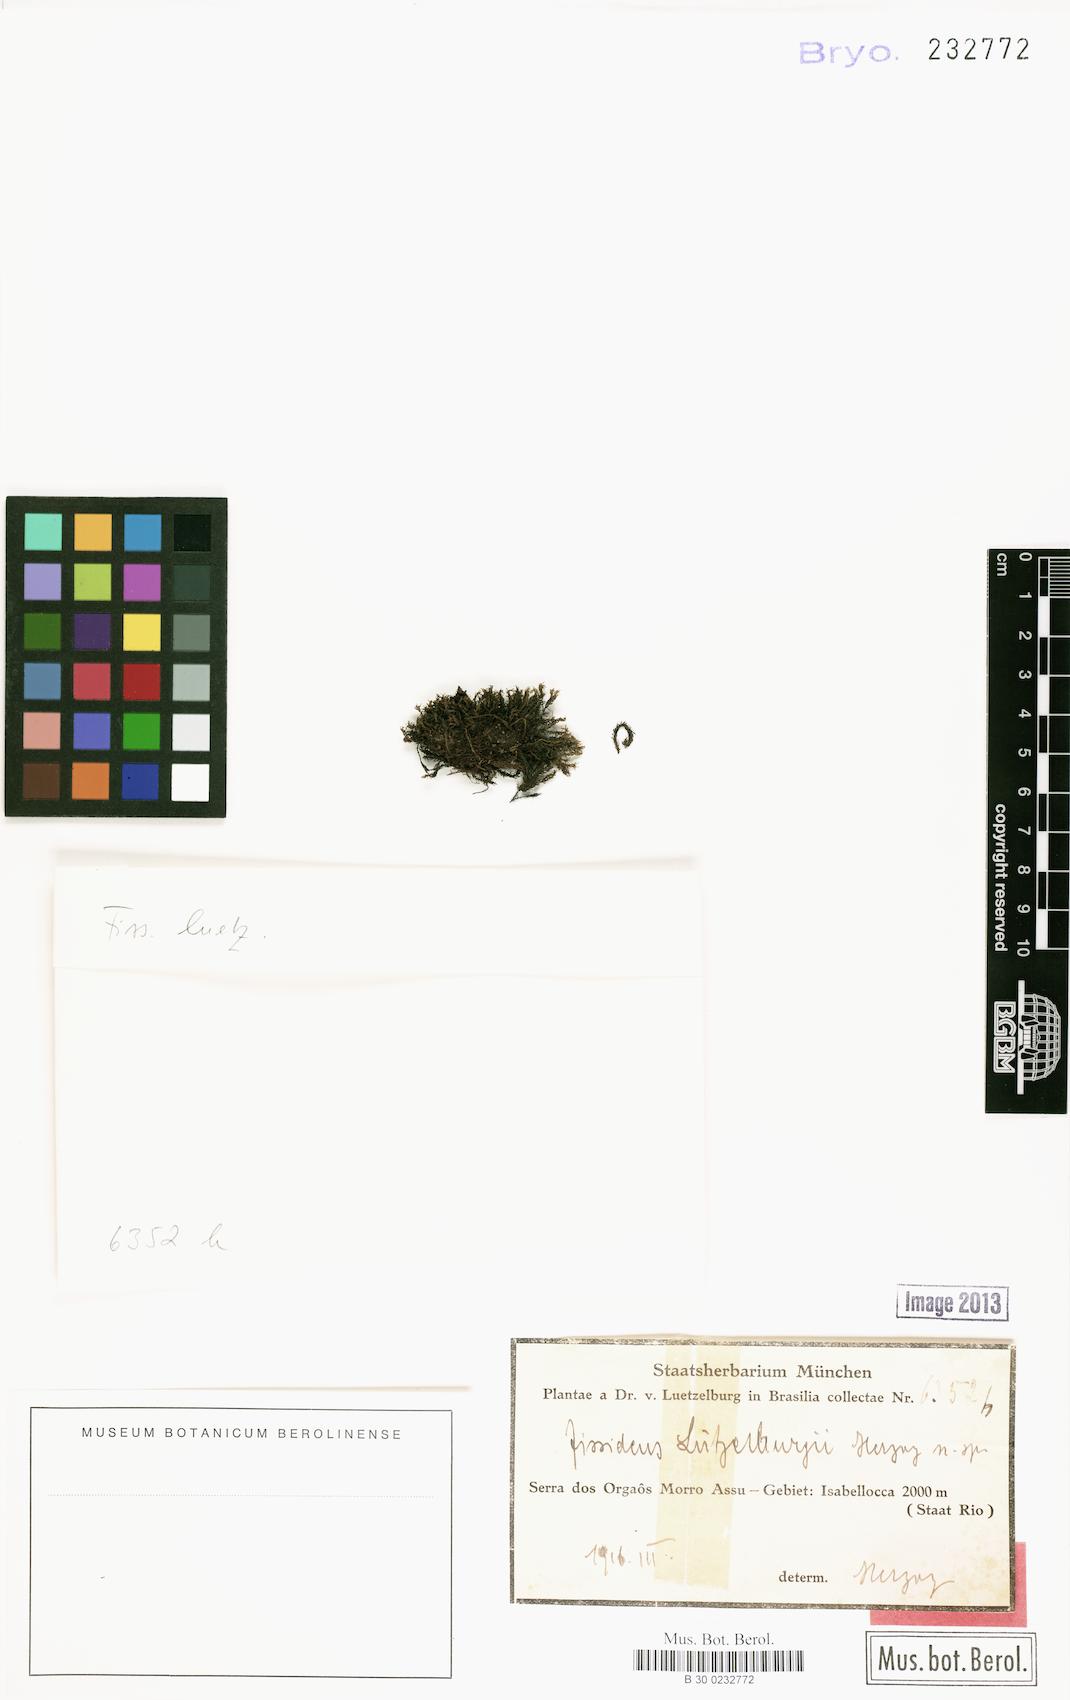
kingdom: Plantae
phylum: Bryophyta
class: Bryopsida
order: Dicranales
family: Fissidentaceae
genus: Fissidens
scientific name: Fissidens
